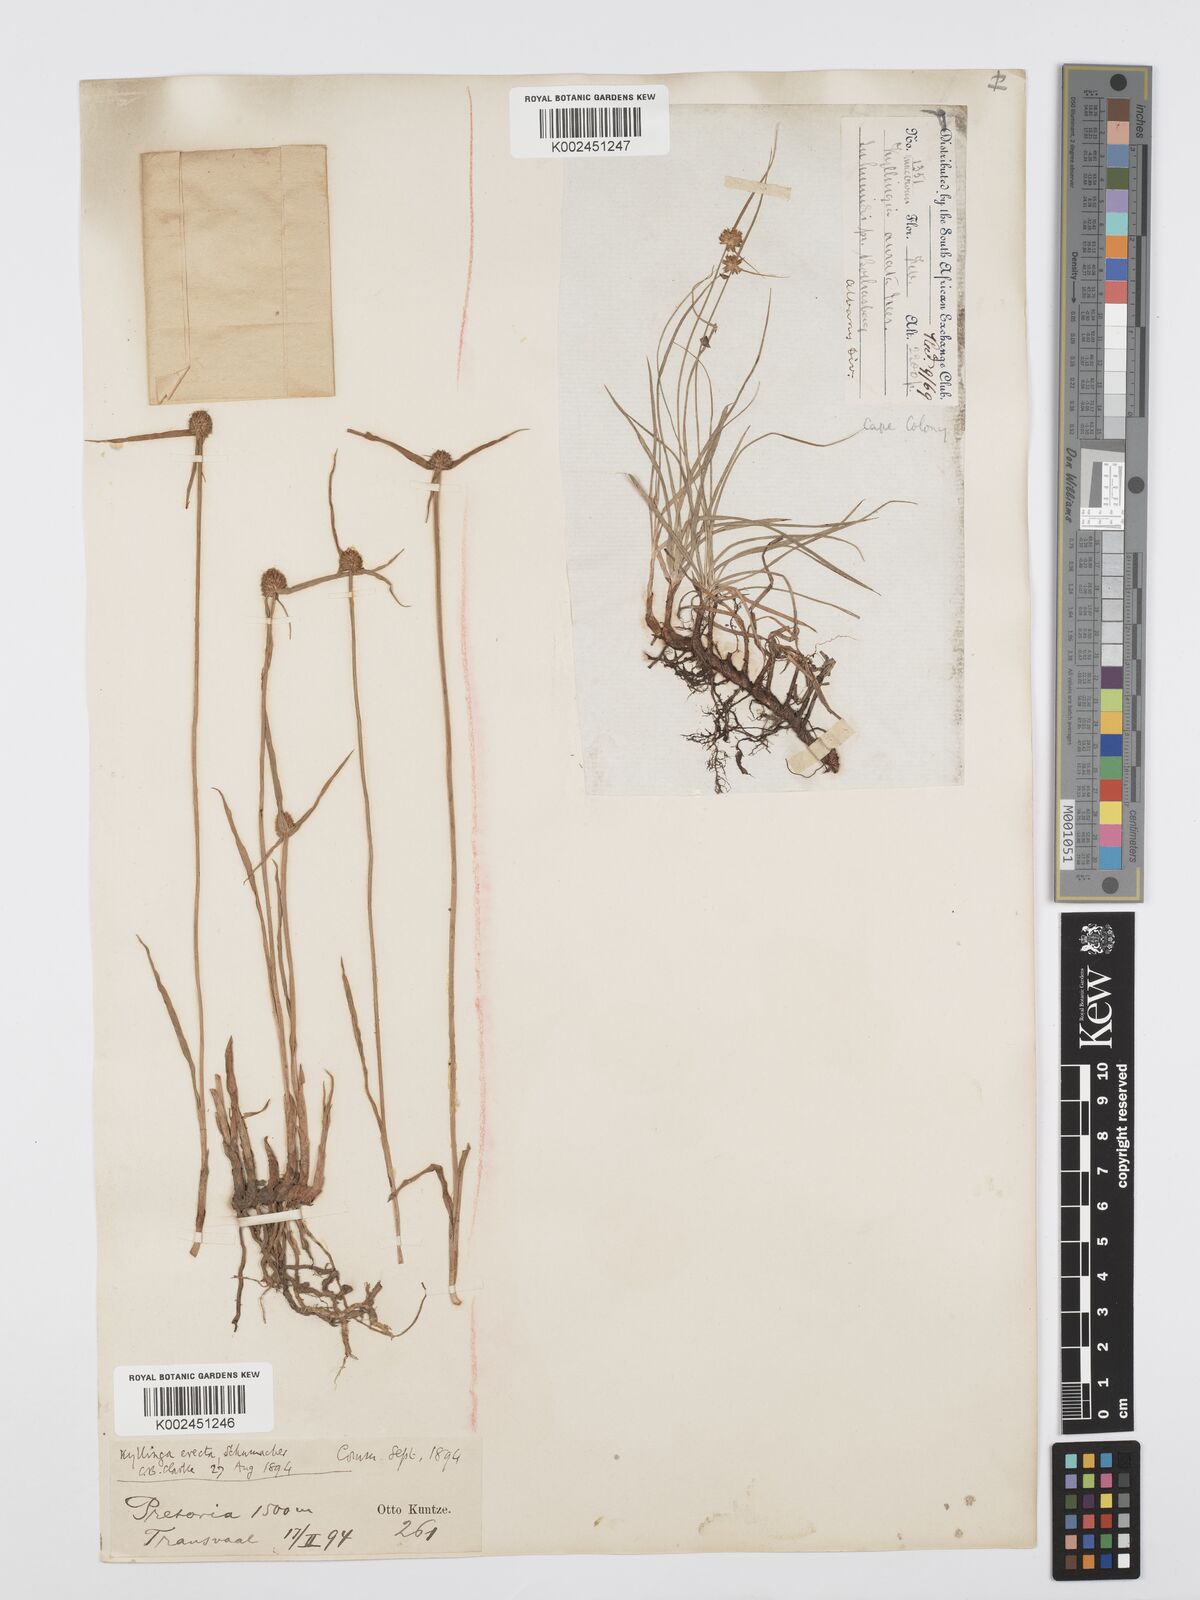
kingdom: Plantae
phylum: Tracheophyta
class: Liliopsida
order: Poales
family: Cyperaceae
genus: Cyperus
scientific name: Cyperus erectus
